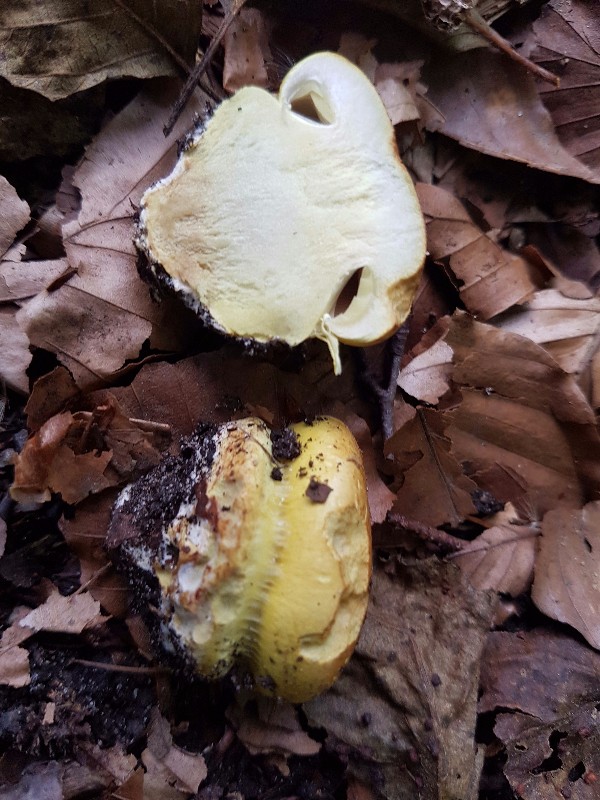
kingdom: Fungi
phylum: Basidiomycota
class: Agaricomycetes
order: Agaricales
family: Cortinariaceae
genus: Calonarius
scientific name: Calonarius elegantissimus
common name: orangegylden slørhat
